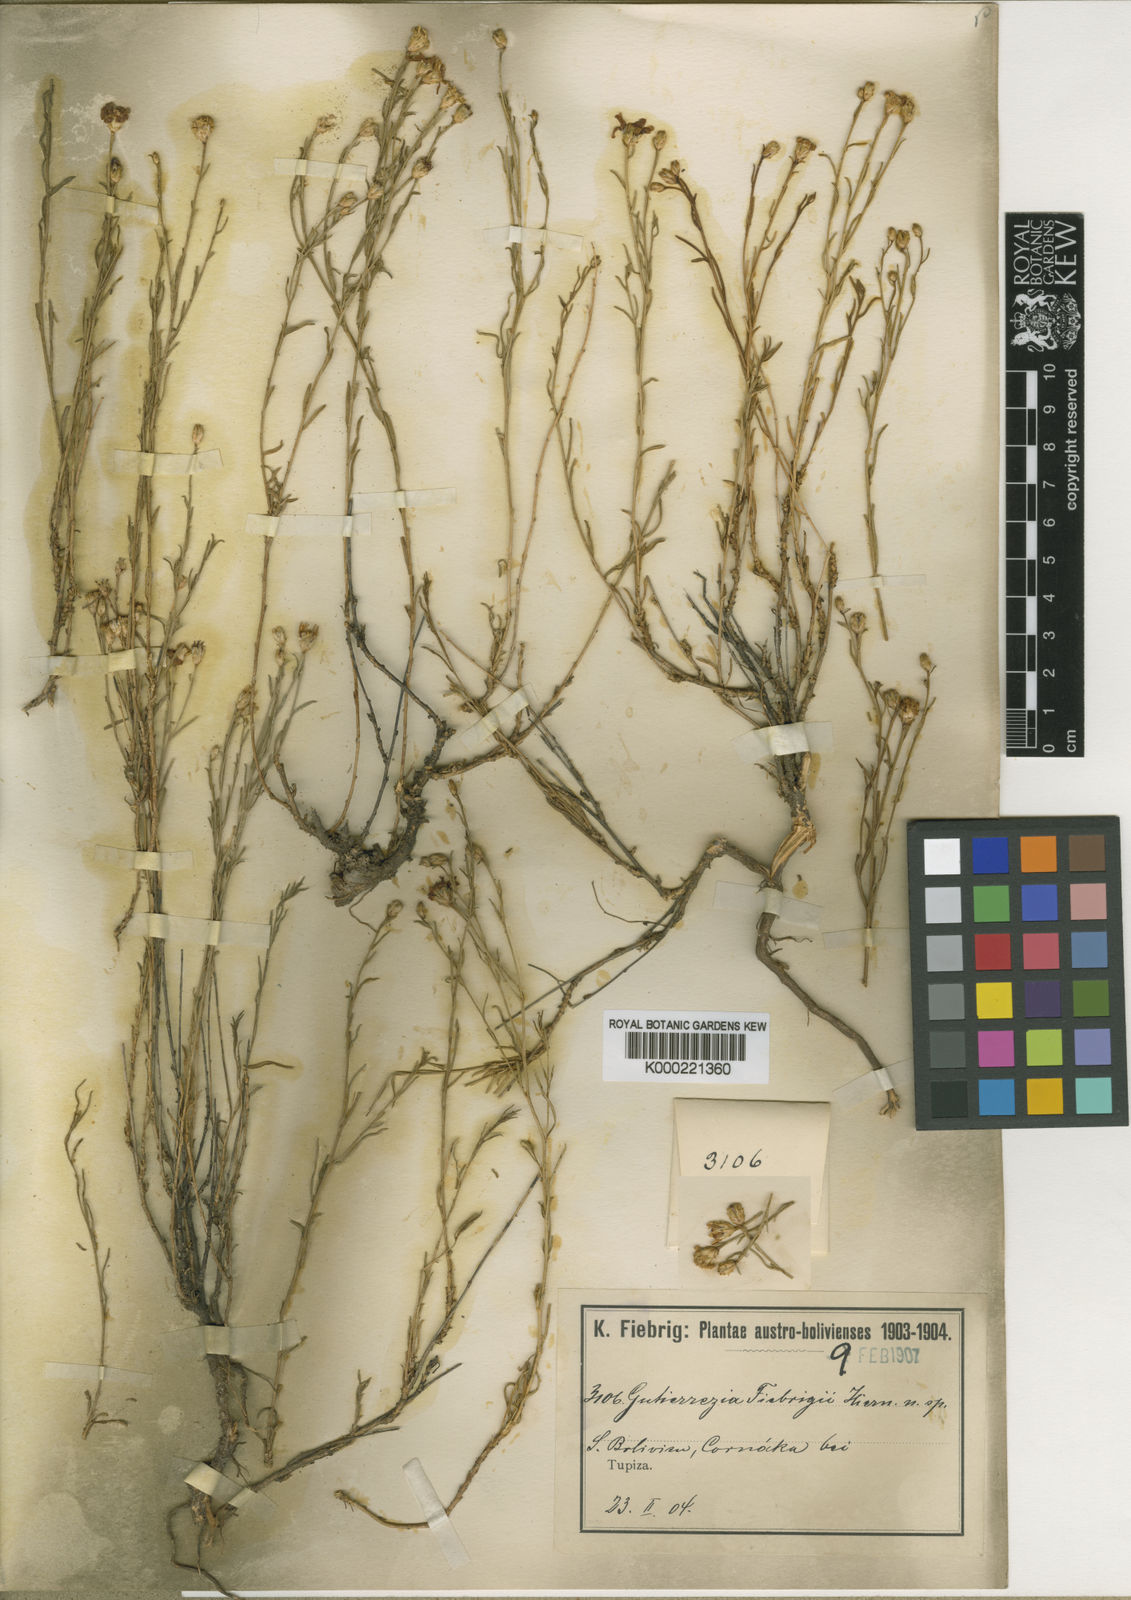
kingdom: Plantae
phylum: Tracheophyta
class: Magnoliopsida
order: Asterales
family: Asteraceae
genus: Gutierrezia
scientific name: Gutierrezia mandonii
